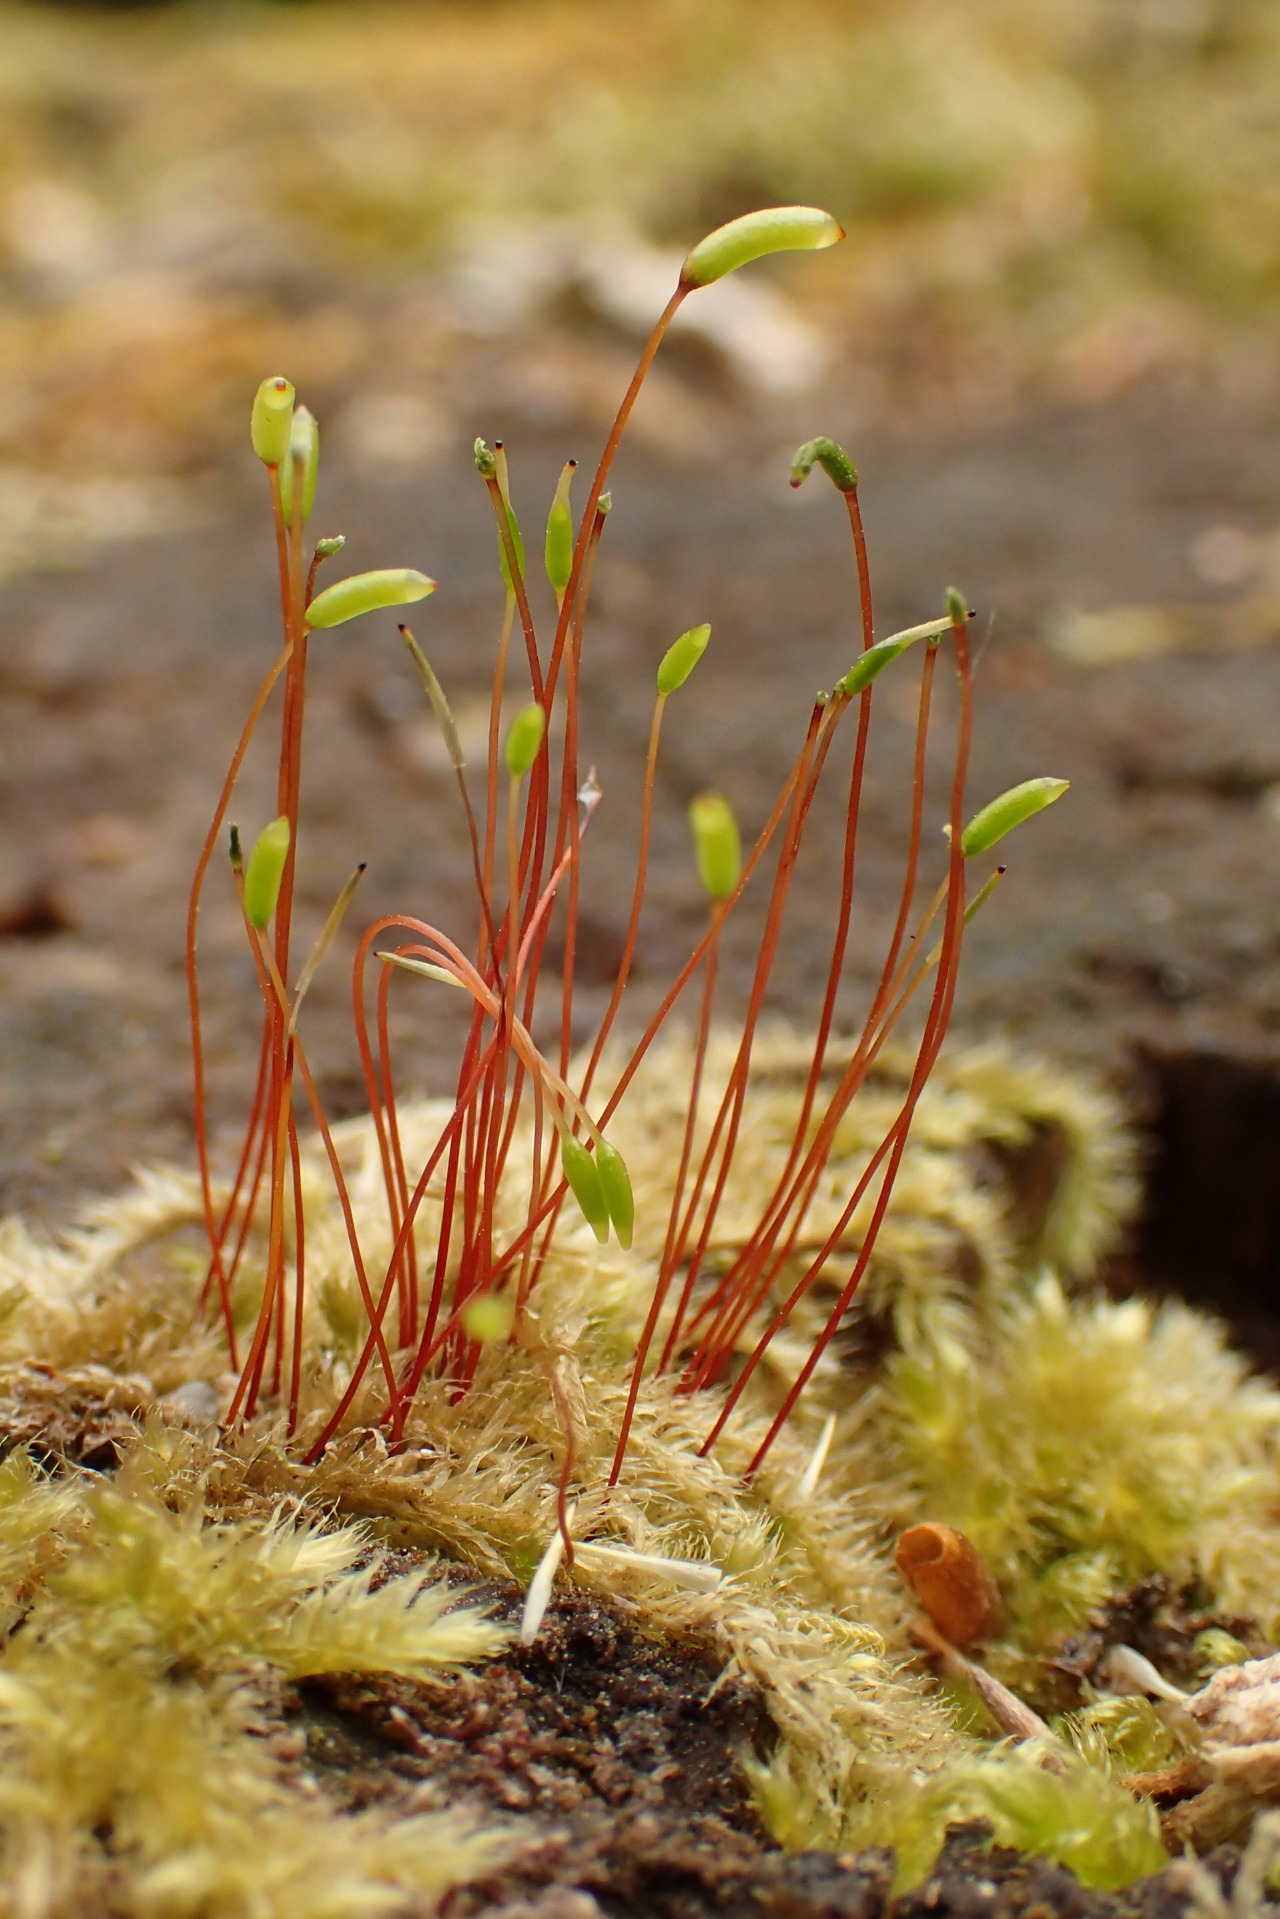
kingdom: Plantae
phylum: Bryophyta
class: Bryopsida
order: Hypnales
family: Plagiotheciaceae
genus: Herzogiella
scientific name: Herzogiella seligeri
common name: Stub-pølsekapsel
